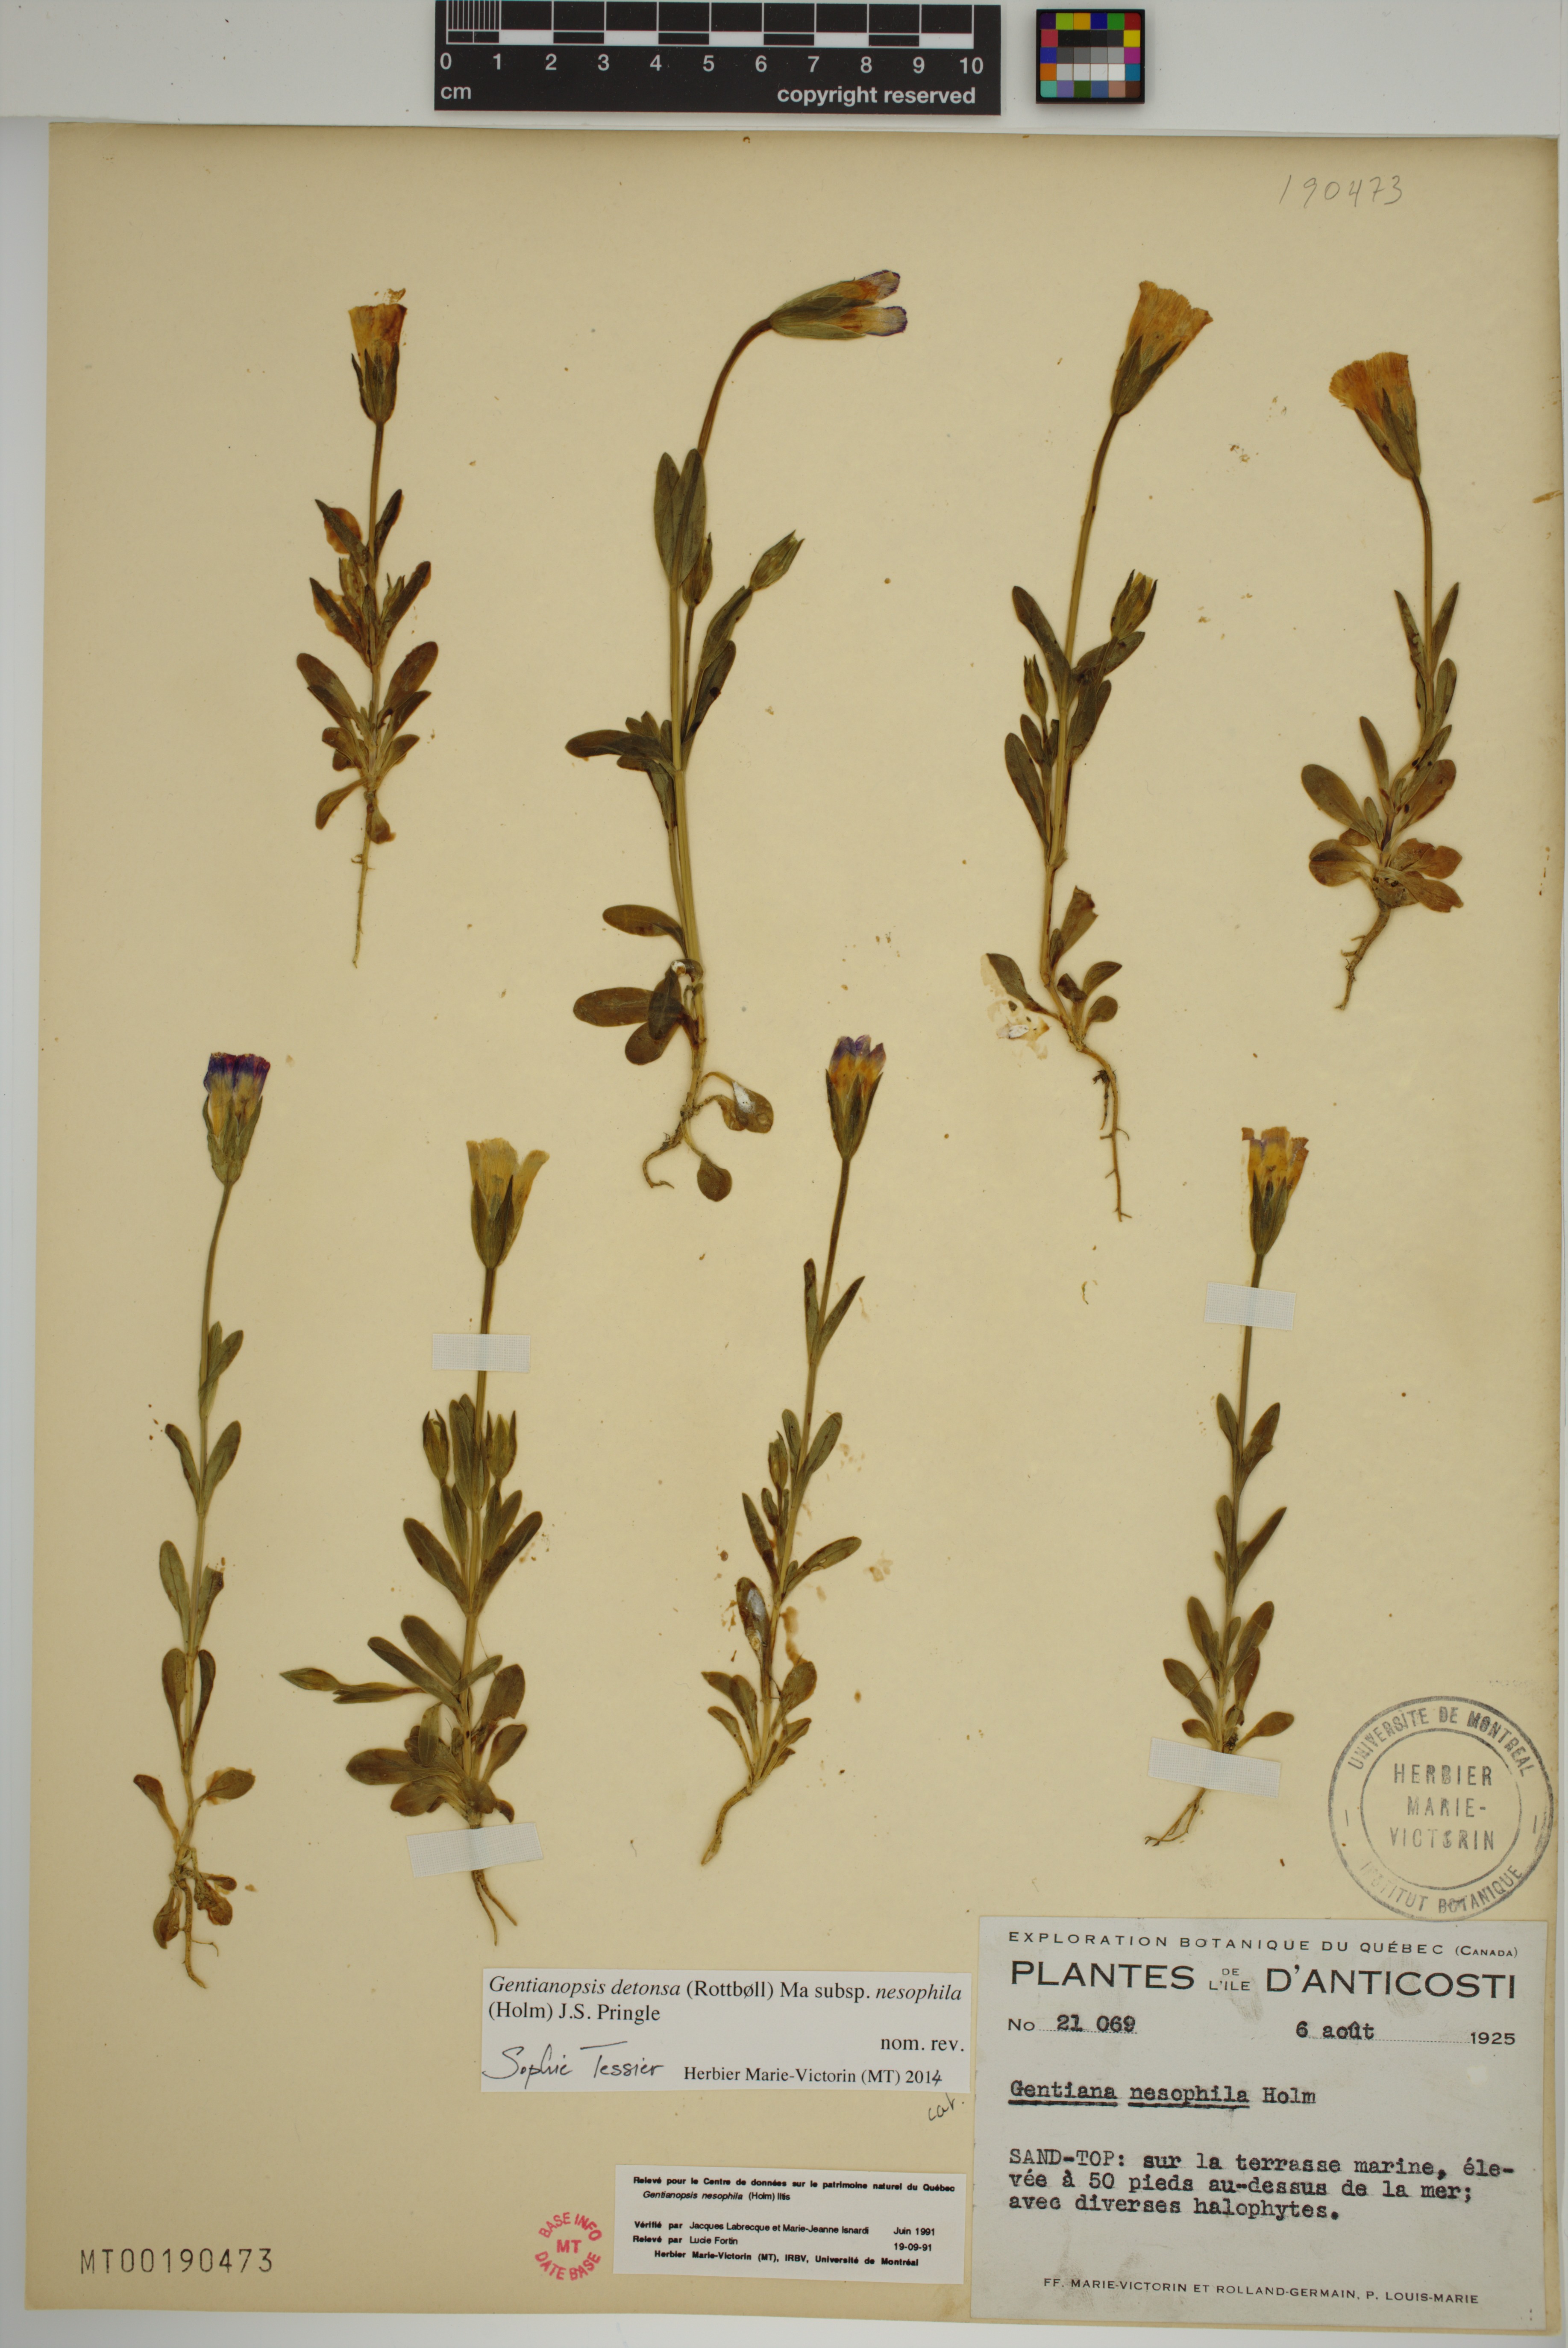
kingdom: Plantae
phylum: Tracheophyta
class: Magnoliopsida
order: Gentianales
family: Gentianaceae
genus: Gentianopsis
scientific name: Gentianopsis nesophila
